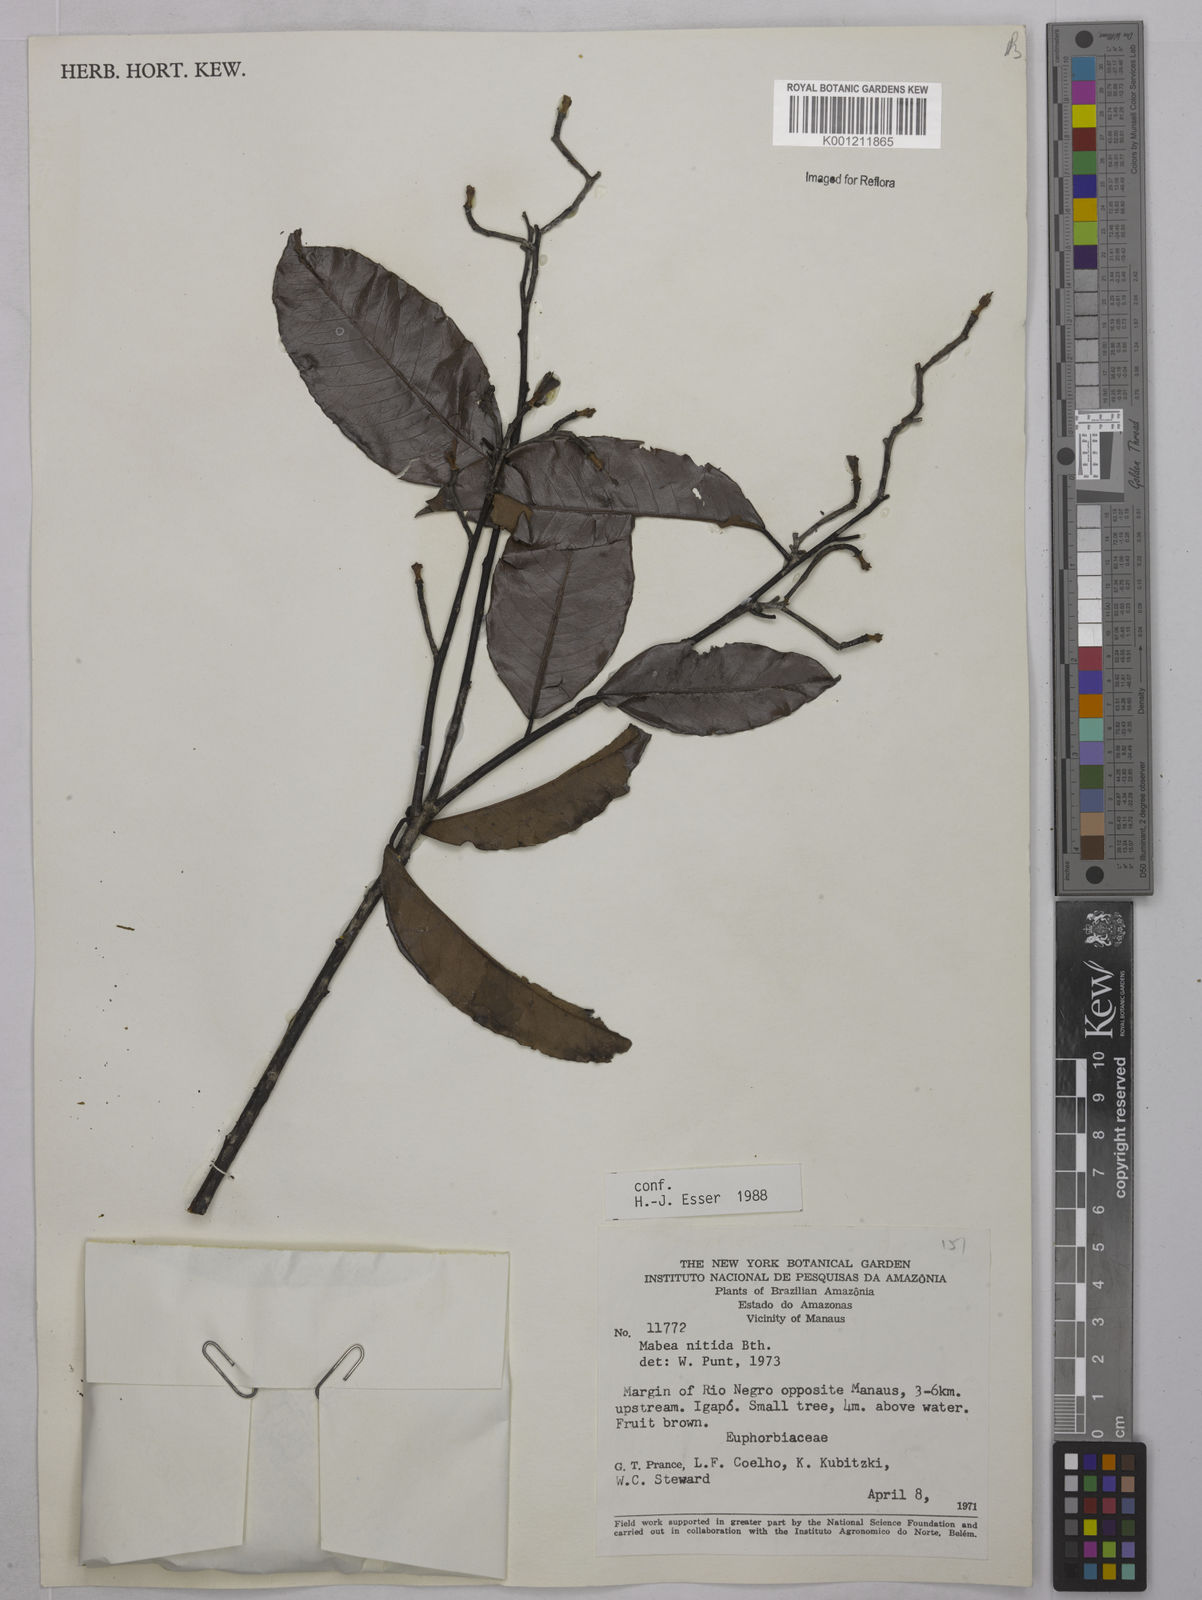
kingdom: Plantae
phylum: Tracheophyta
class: Magnoliopsida
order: Malpighiales
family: Euphorbiaceae
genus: Mabea
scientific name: Mabea nitida
